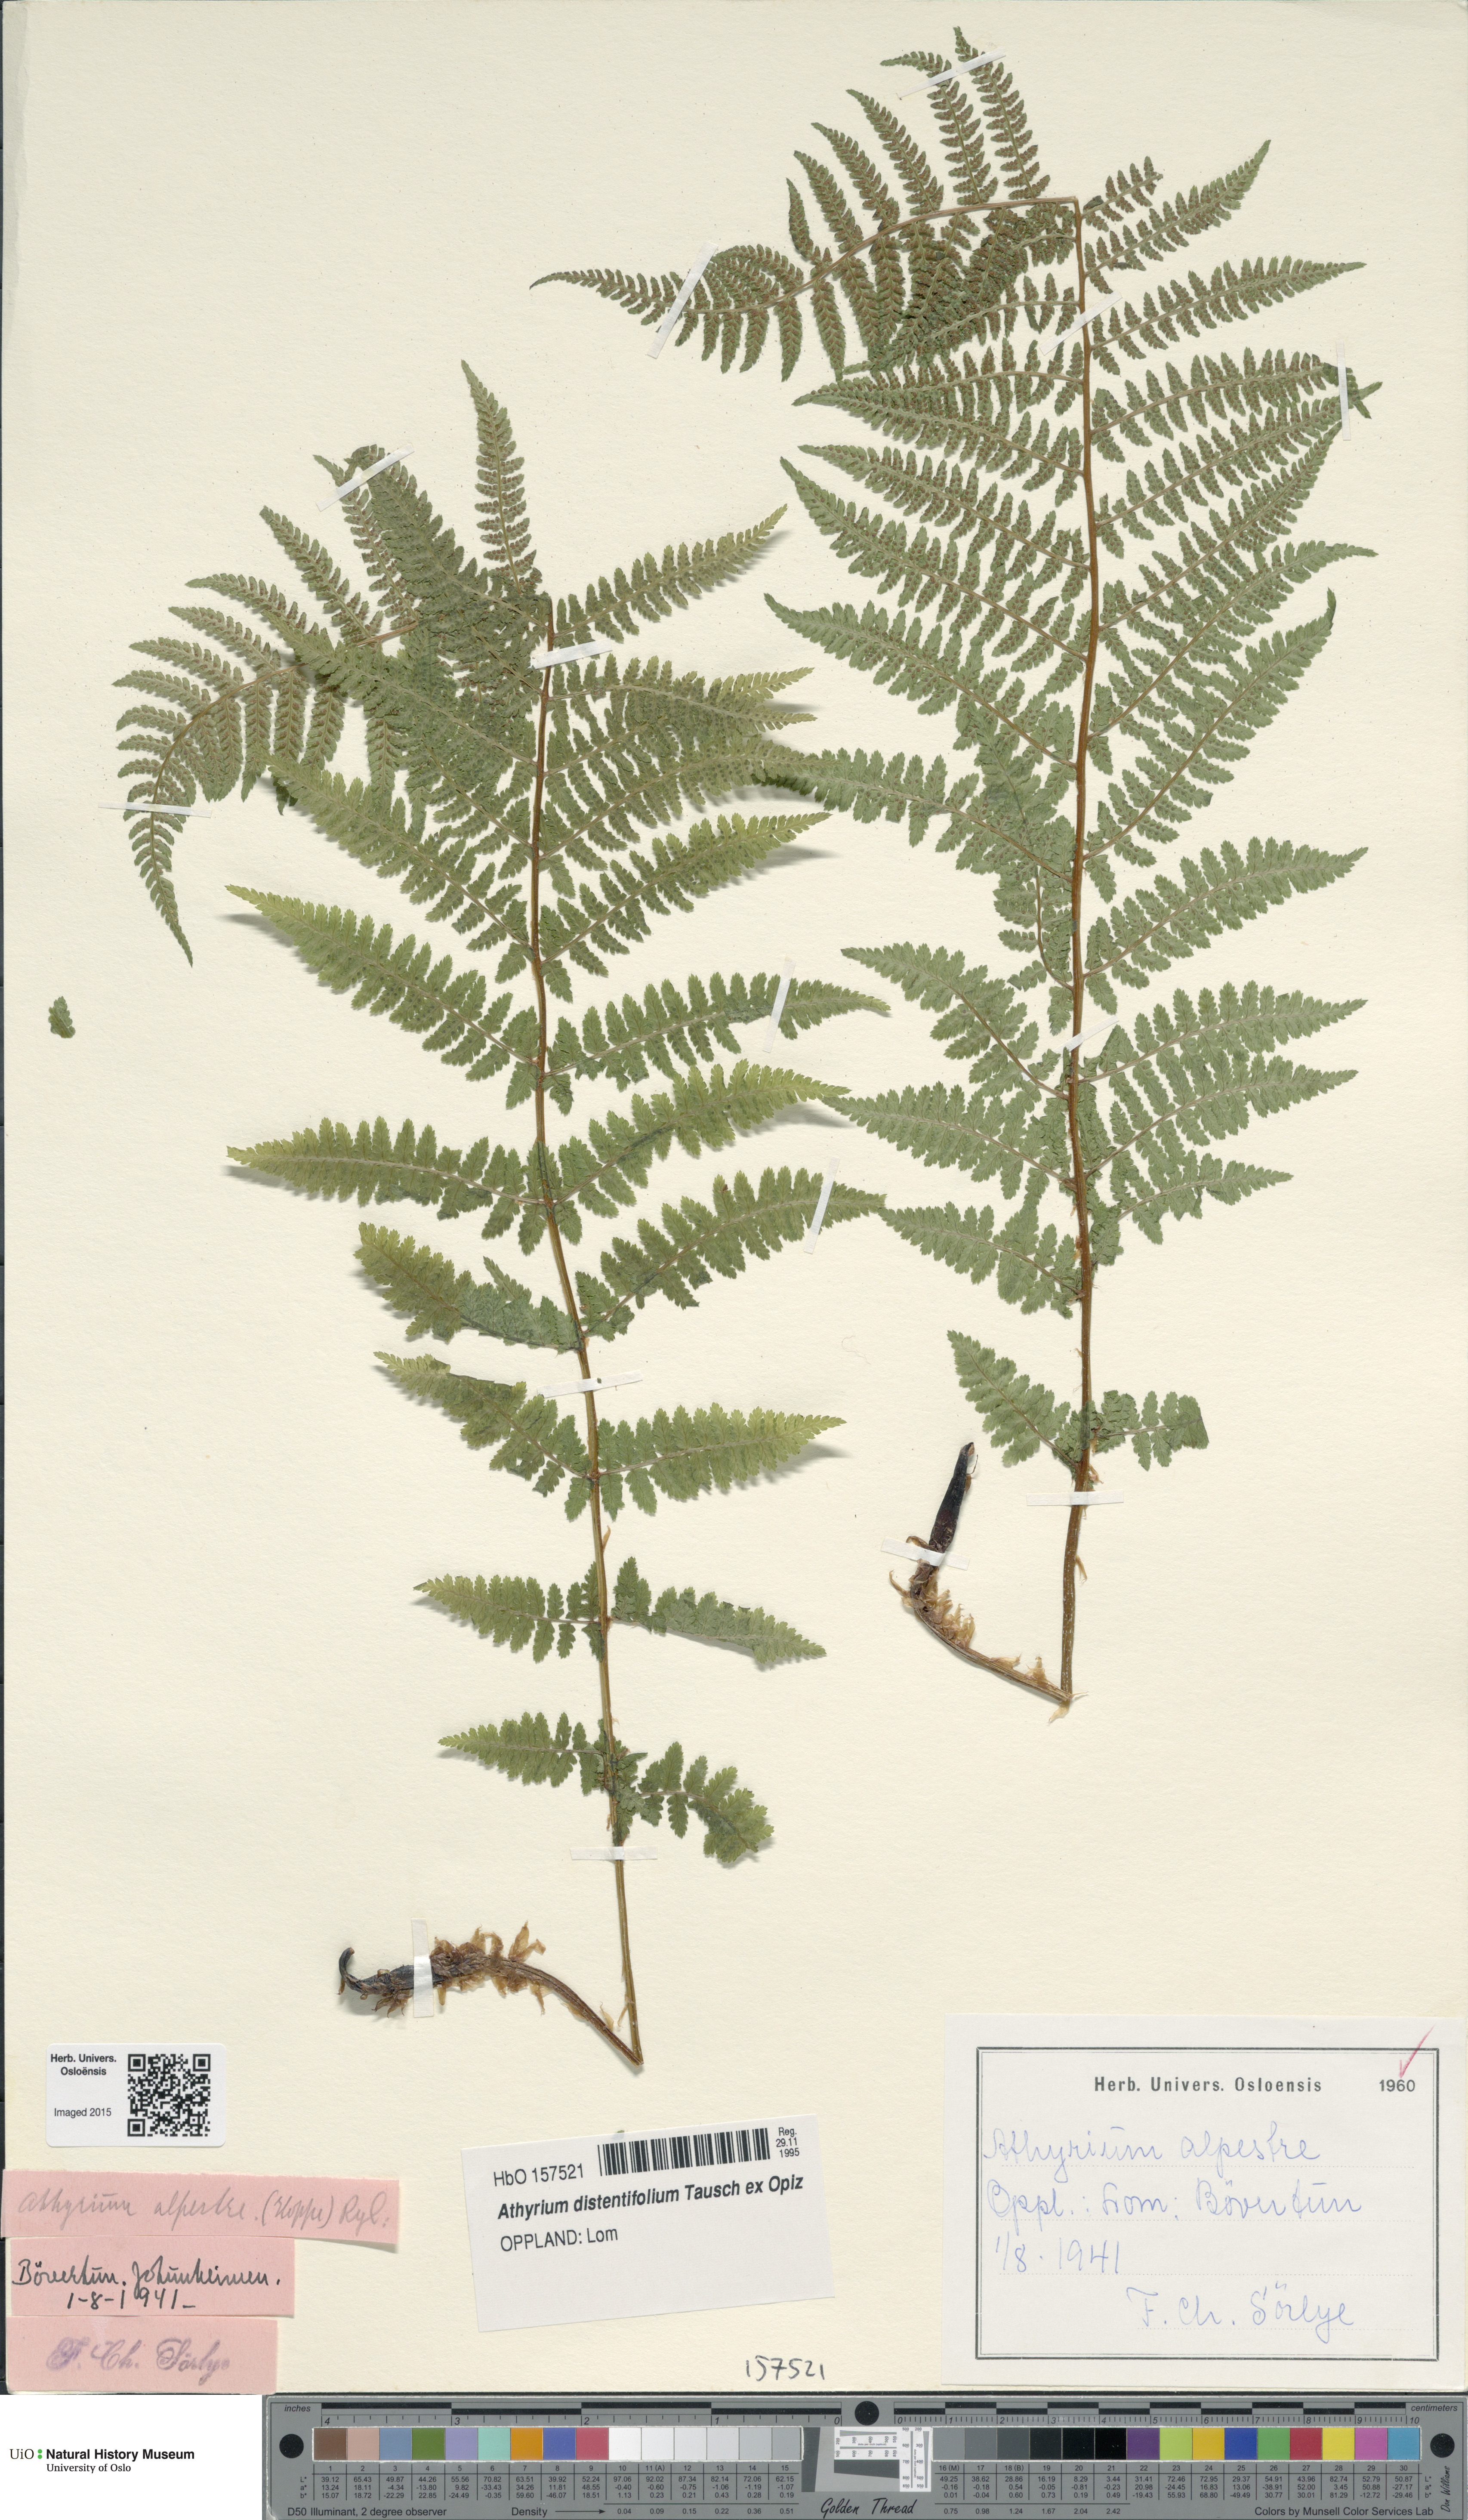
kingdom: Plantae
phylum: Tracheophyta
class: Polypodiopsida
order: Polypodiales
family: Athyriaceae
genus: Pseudathyrium
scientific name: Pseudathyrium alpestre
